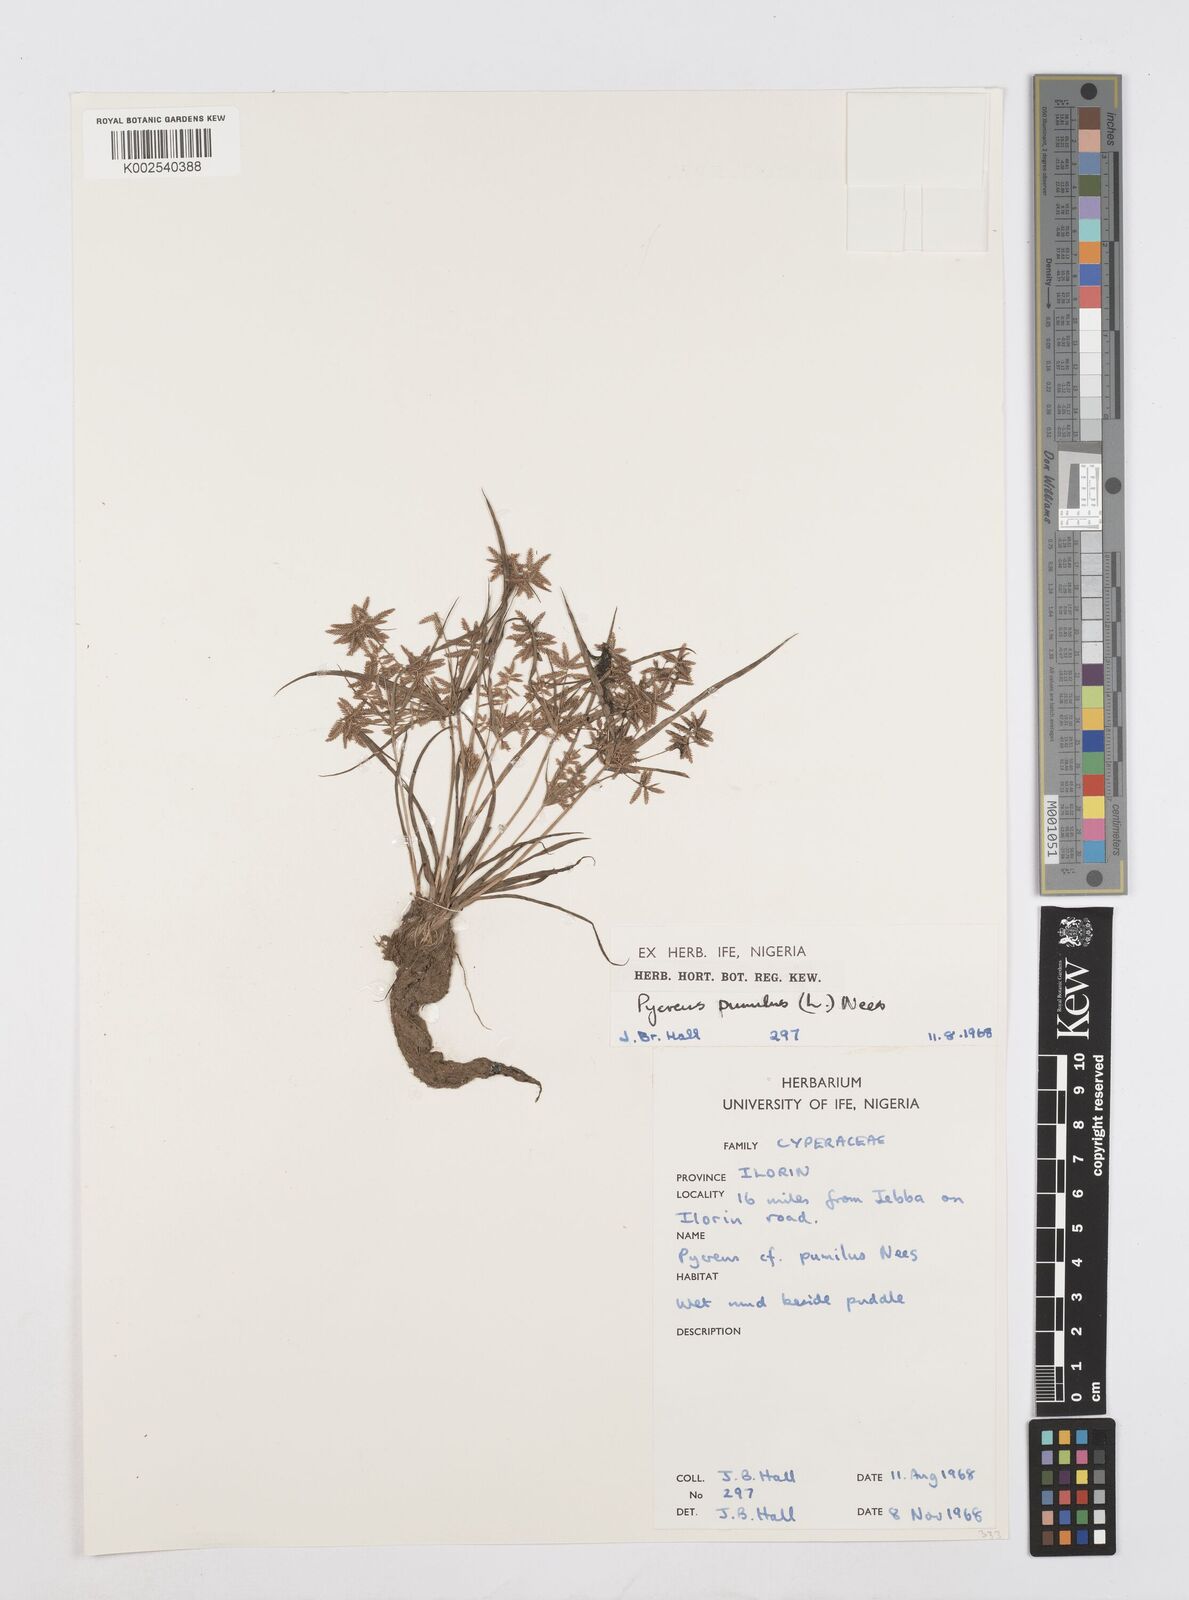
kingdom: Plantae
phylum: Tracheophyta
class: Liliopsida
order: Poales
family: Cyperaceae
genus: Cyperus
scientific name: Cyperus pumilus
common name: Low flatsedge
